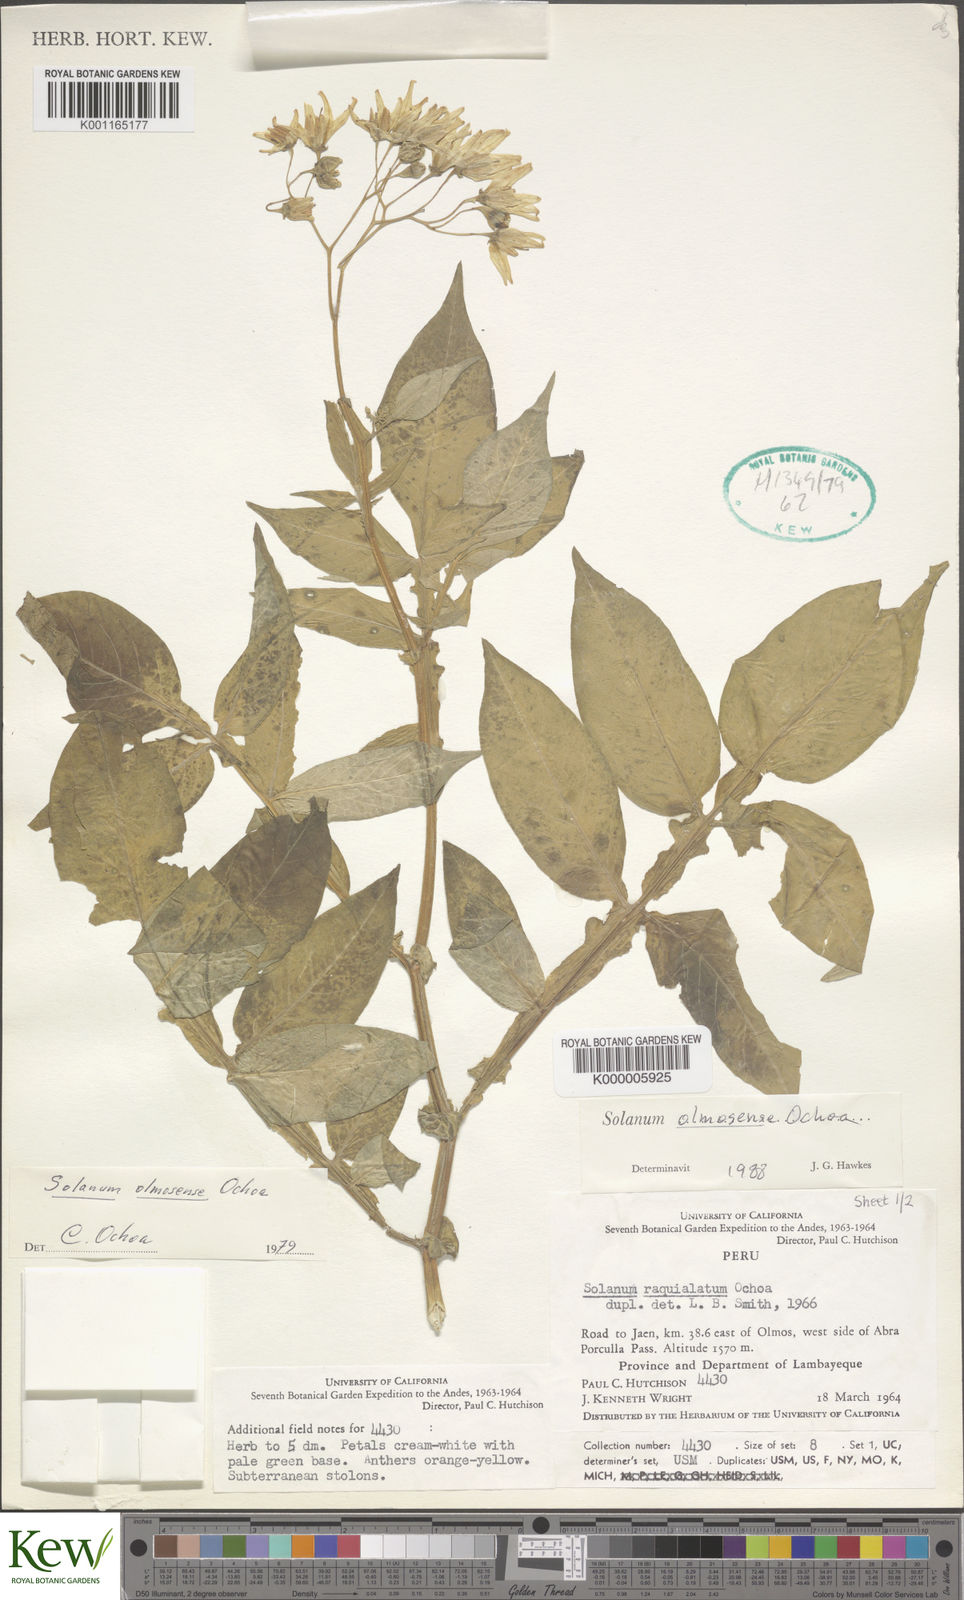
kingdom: Plantae
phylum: Tracheophyta
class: Magnoliopsida
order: Solanales
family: Solanaceae
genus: Solanum
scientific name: Solanum olmosense
